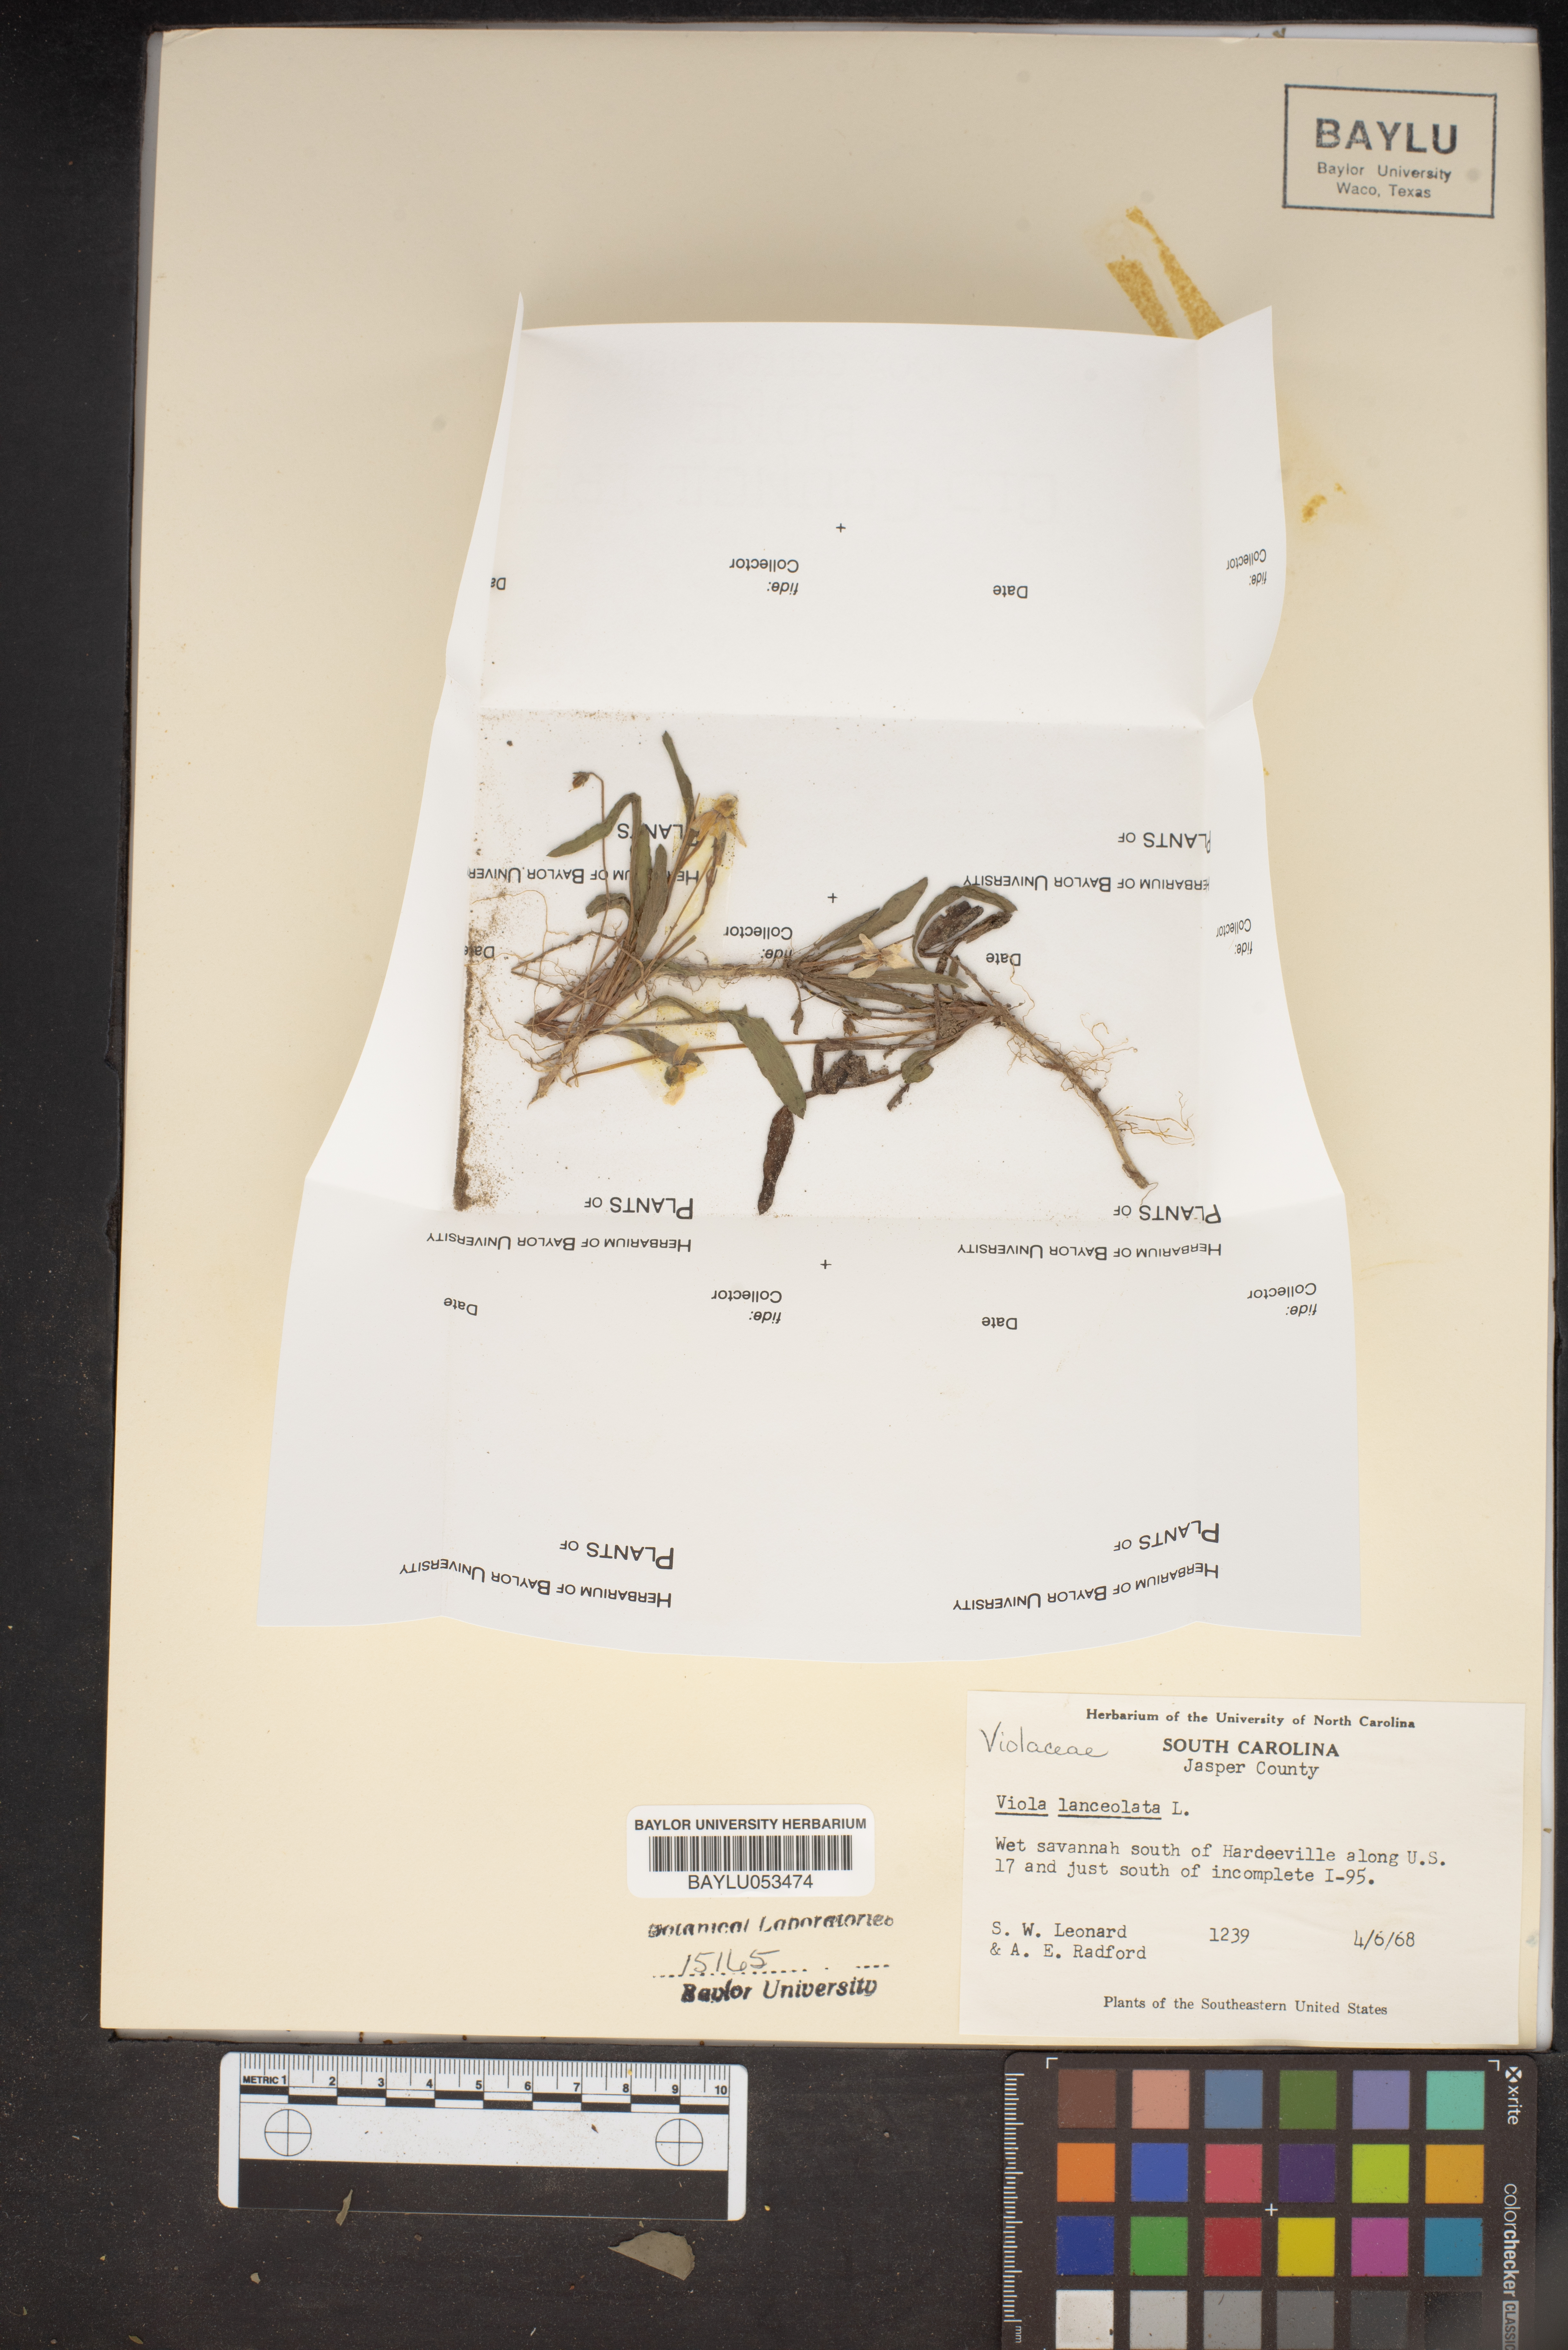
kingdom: Plantae
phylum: Tracheophyta
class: Magnoliopsida
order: Malpighiales
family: Violaceae
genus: Viola
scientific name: Viola lanceolata
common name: Bog white violet
